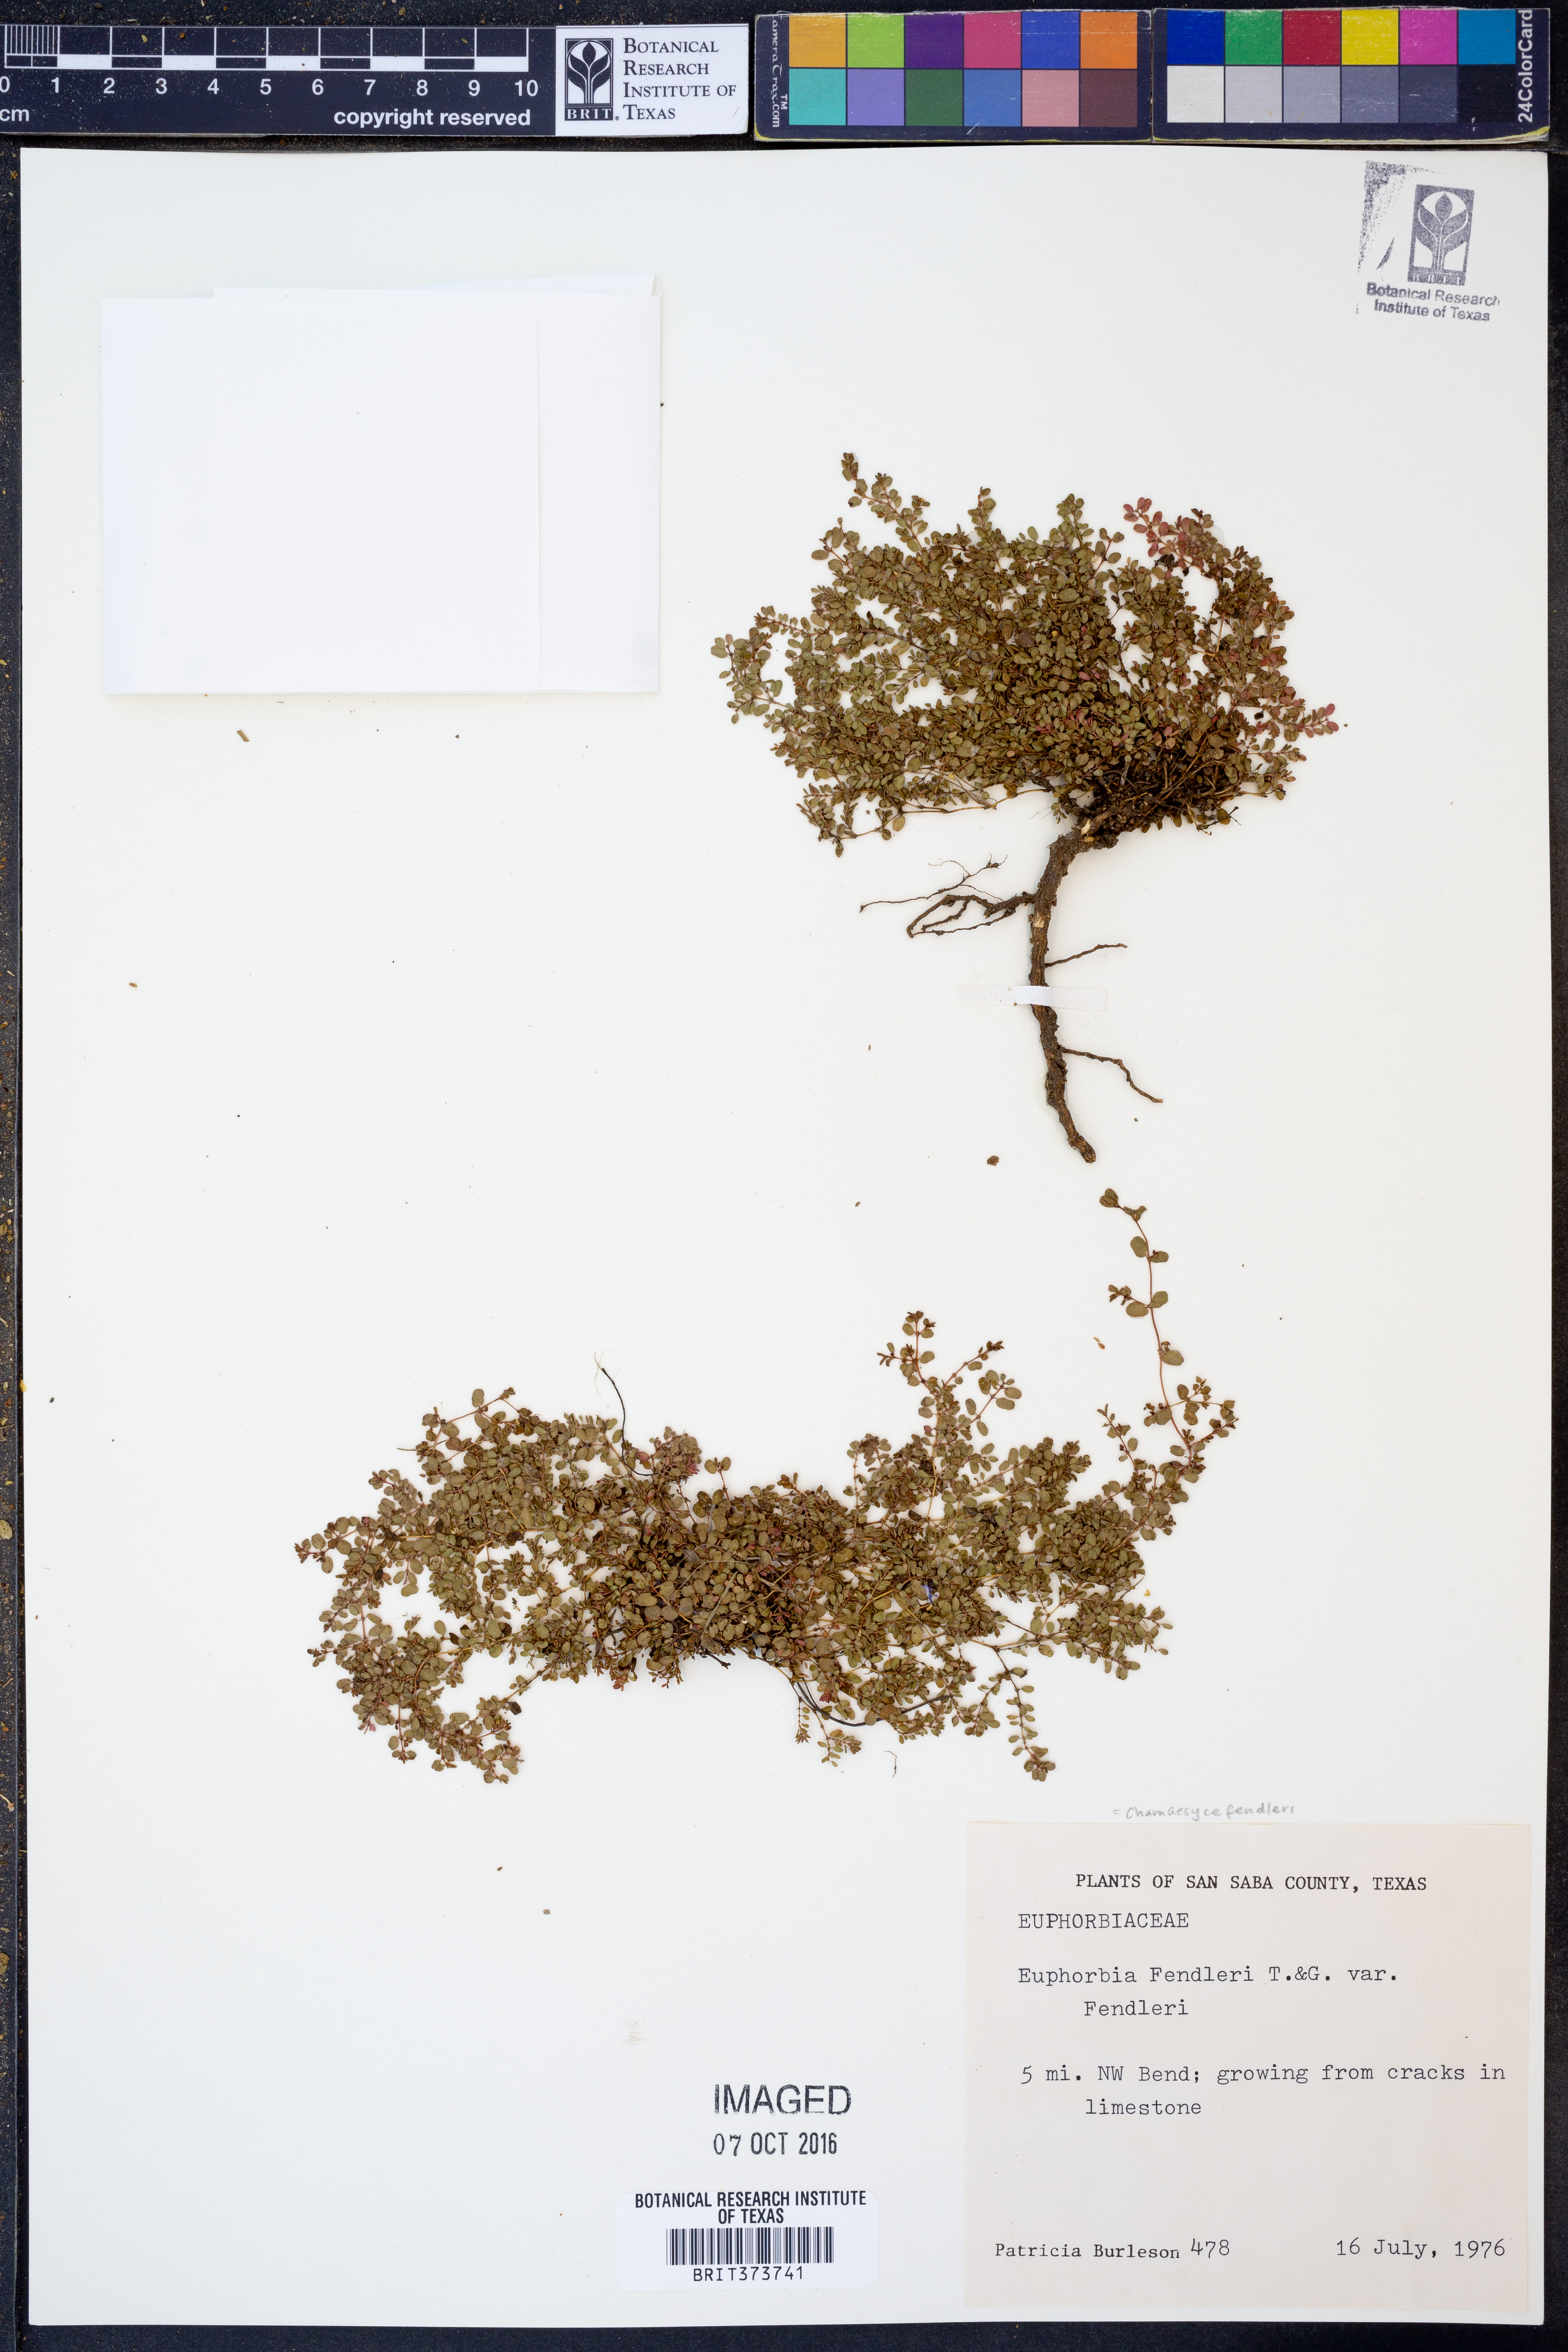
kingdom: Plantae
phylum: Tracheophyta
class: Magnoliopsida
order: Malpighiales
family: Euphorbiaceae
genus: Euphorbia
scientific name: Euphorbia fendleri
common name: Fendler's euphorbia
